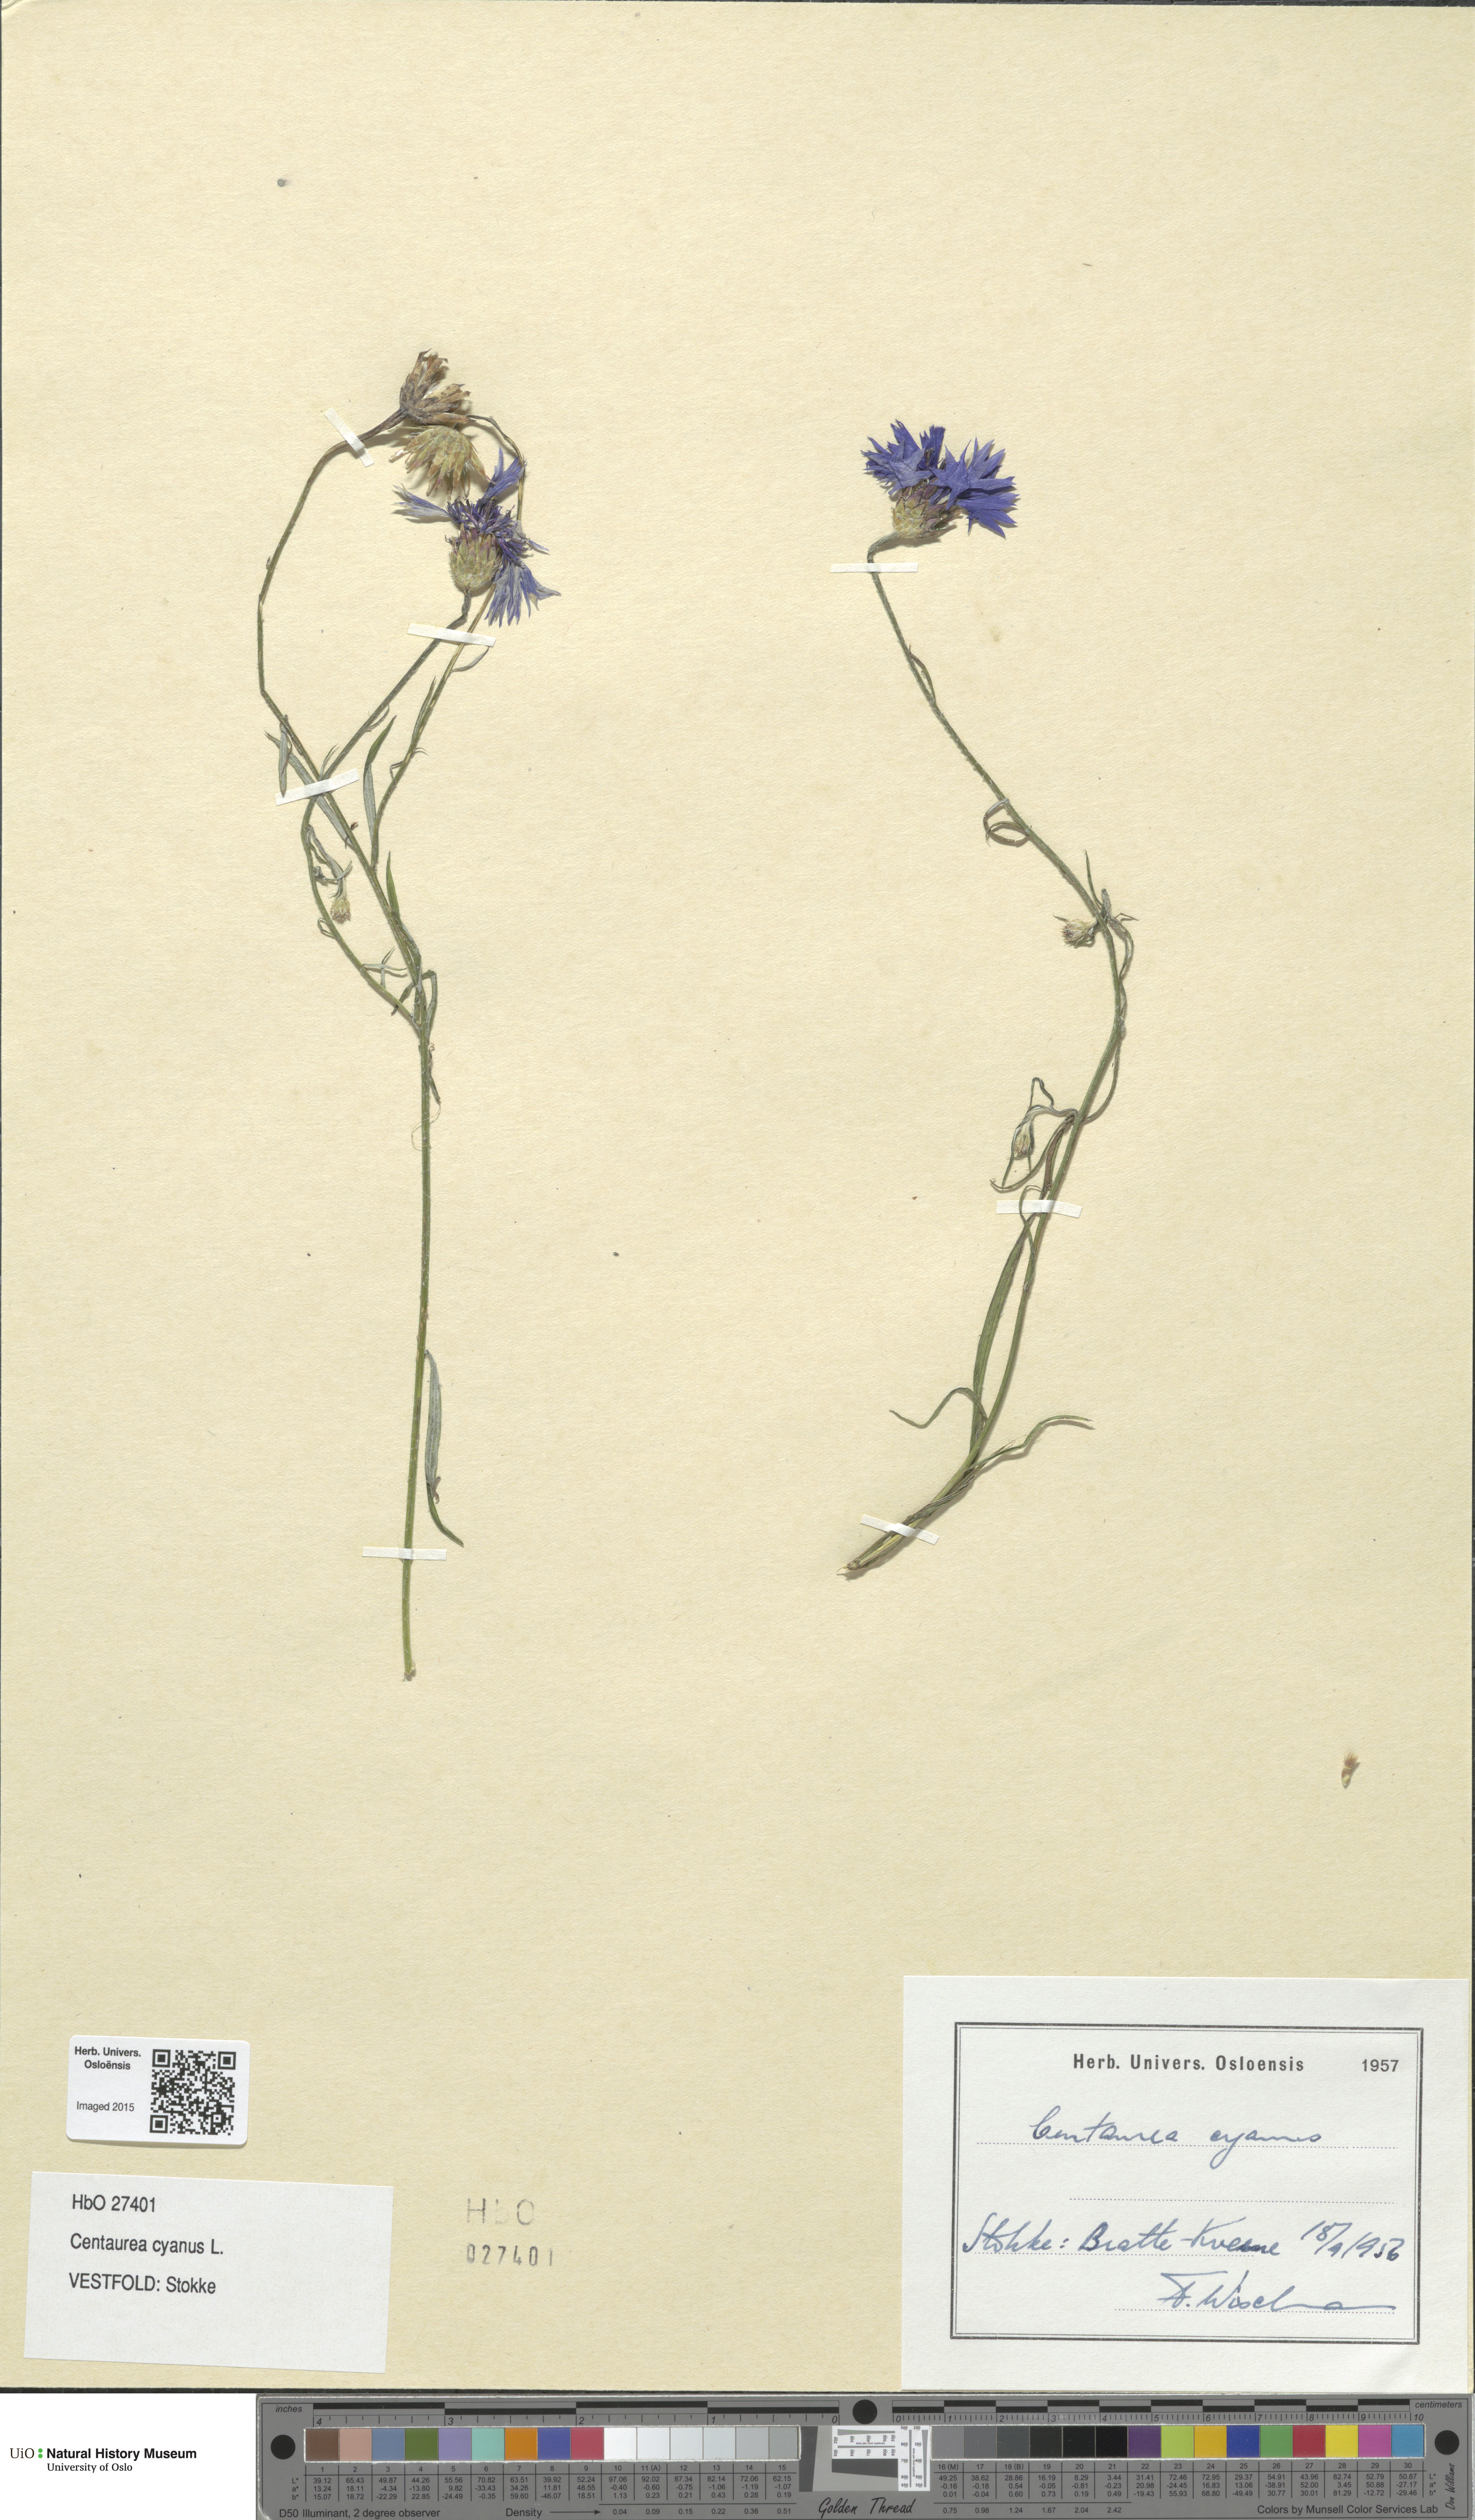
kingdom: Plantae
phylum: Tracheophyta
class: Magnoliopsida
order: Asterales
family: Asteraceae
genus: Centaurea
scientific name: Centaurea cyanus
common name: Cornflower
